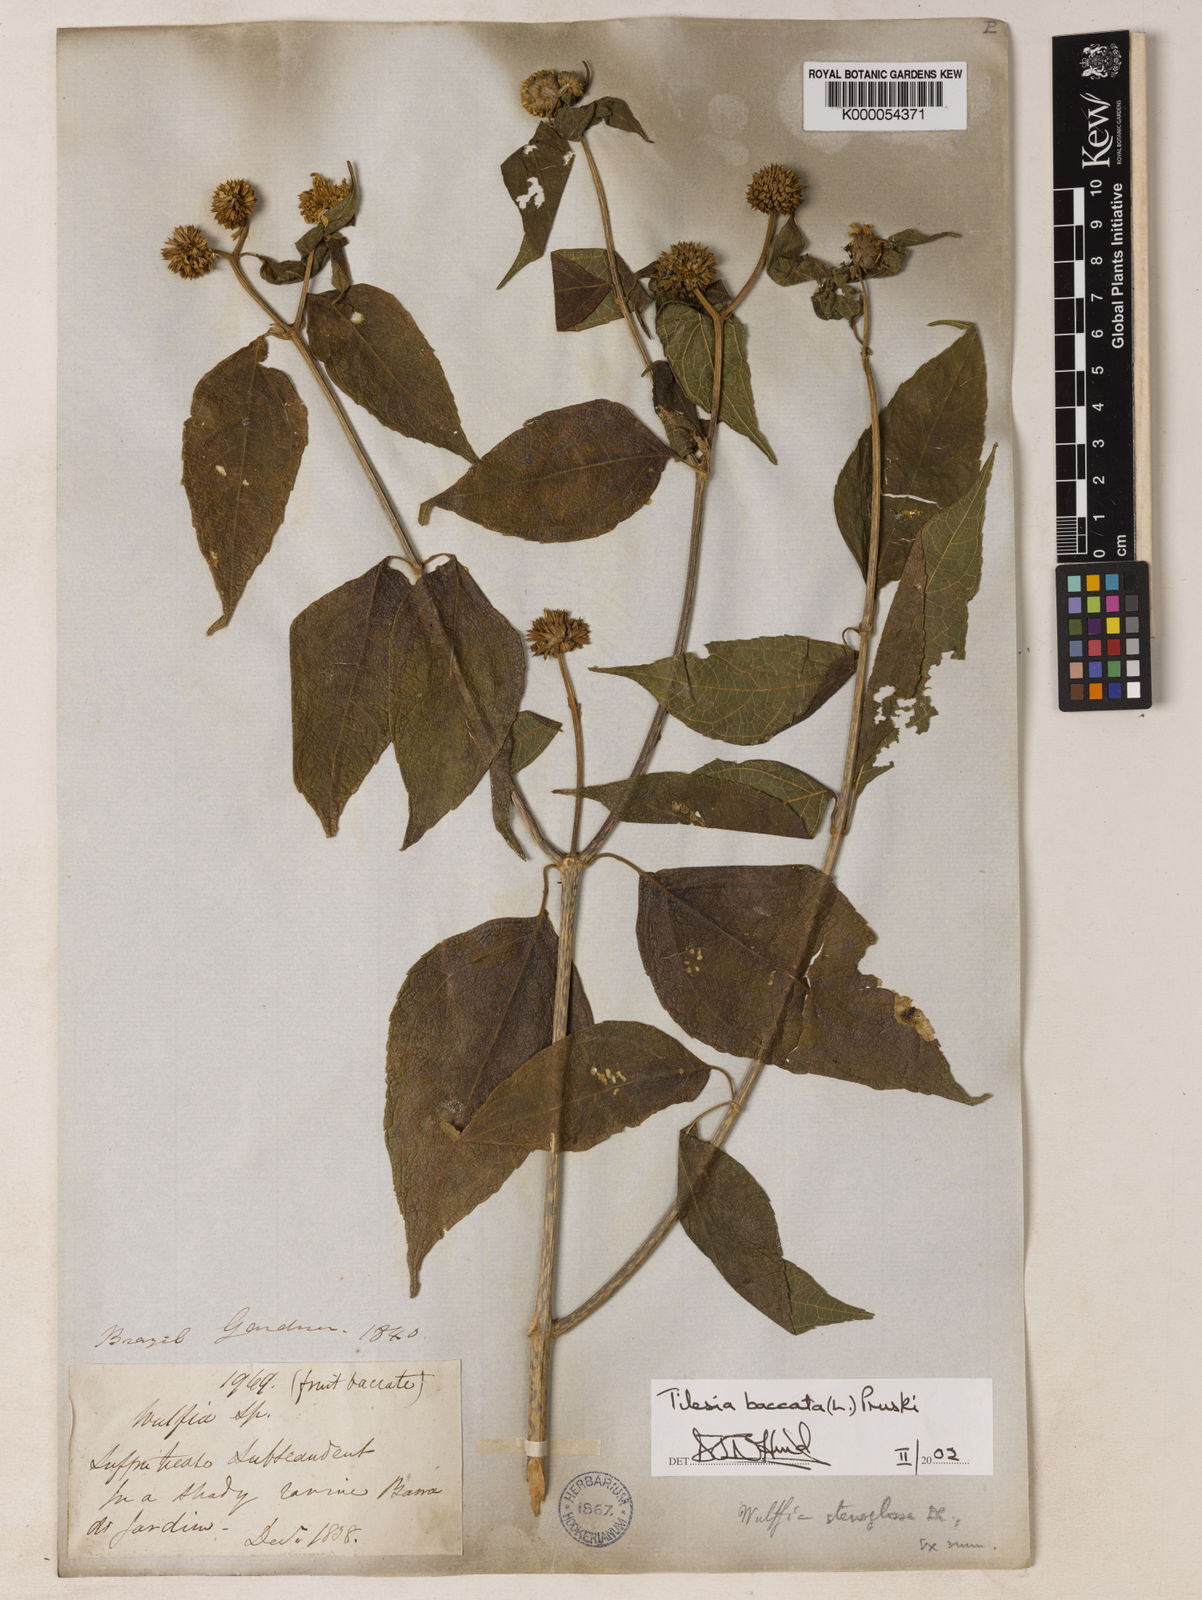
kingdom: Plantae
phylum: Tracheophyta
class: Magnoliopsida
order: Asterales
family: Asteraceae
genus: Tilesia
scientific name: Tilesia baccata
